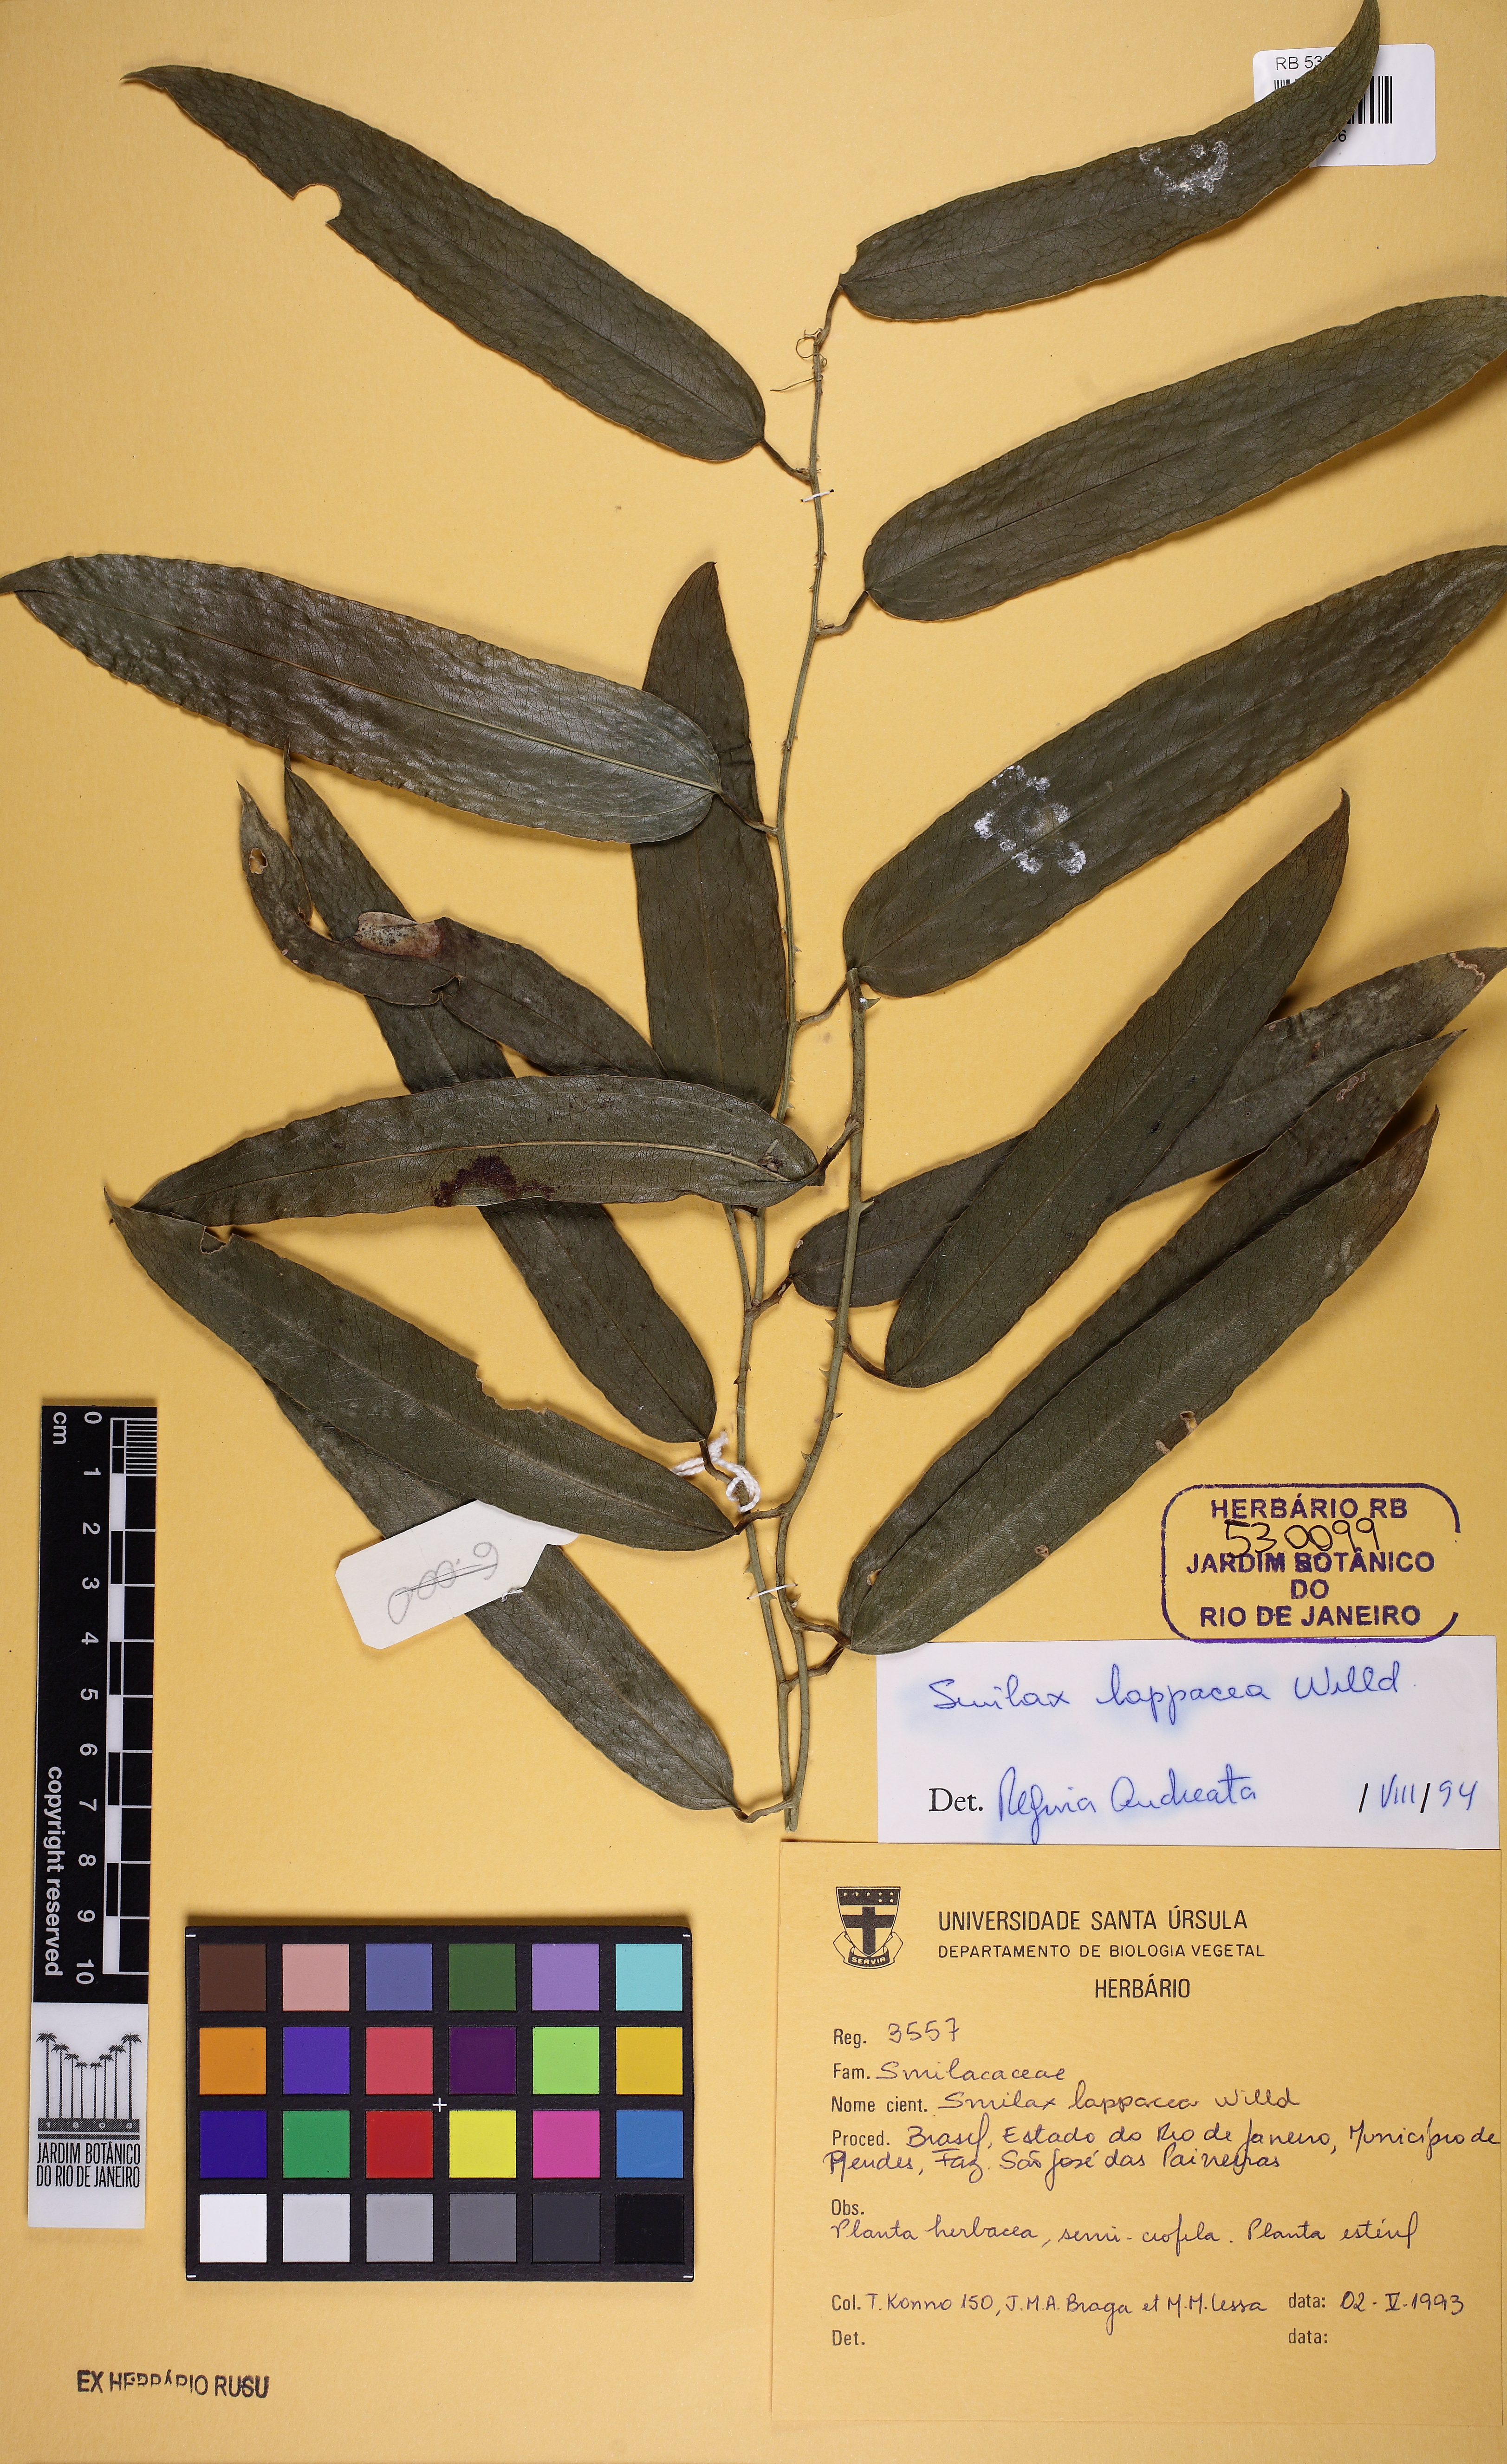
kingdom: Plantae
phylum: Tracheophyta
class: Liliopsida
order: Liliales
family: Smilacaceae
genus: Smilax
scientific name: Smilax lappacea
